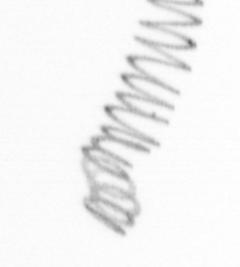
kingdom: Chromista
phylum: Ochrophyta
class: Bacillariophyceae
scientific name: Bacillariophyceae
